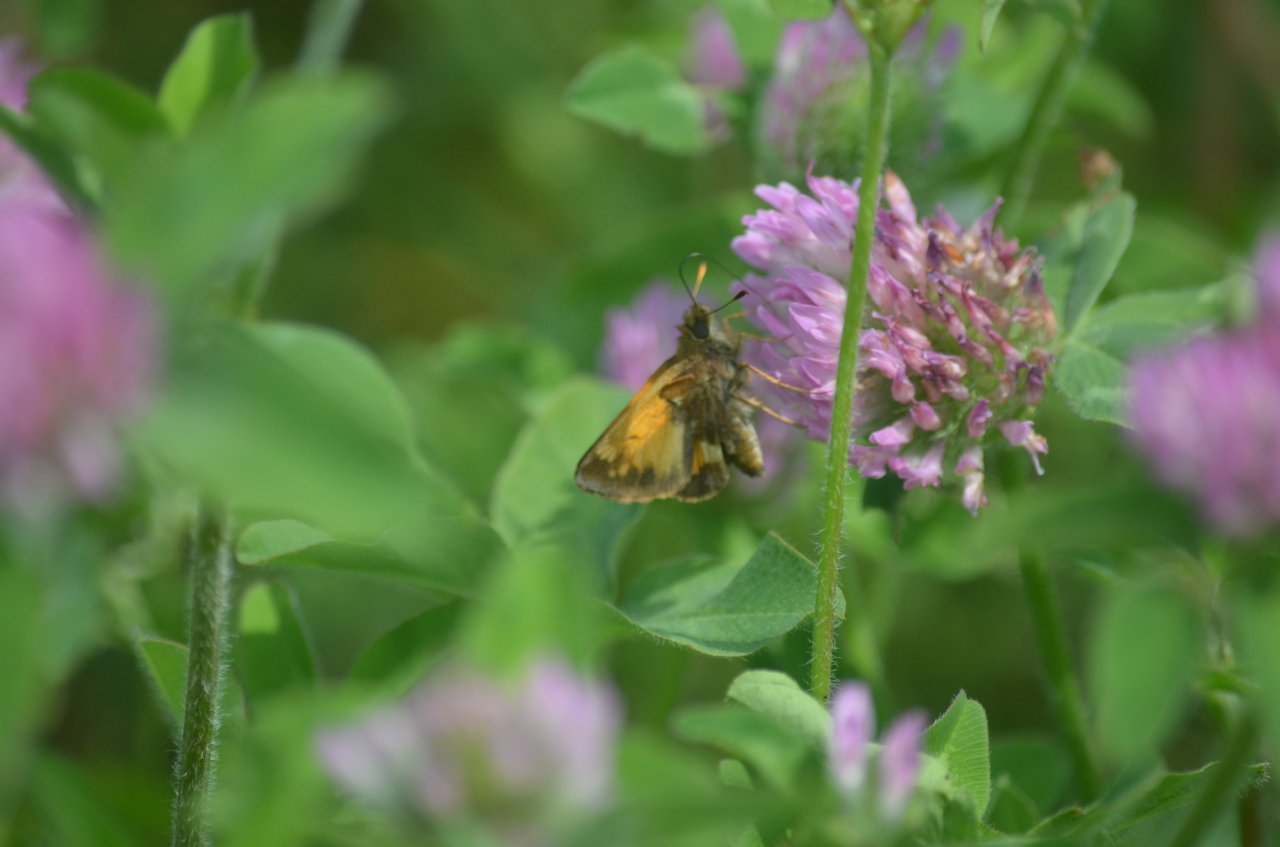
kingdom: Animalia
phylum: Arthropoda
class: Insecta
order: Lepidoptera
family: Hesperiidae
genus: Lon
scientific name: Lon hobomok
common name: Hobomok Skipper
